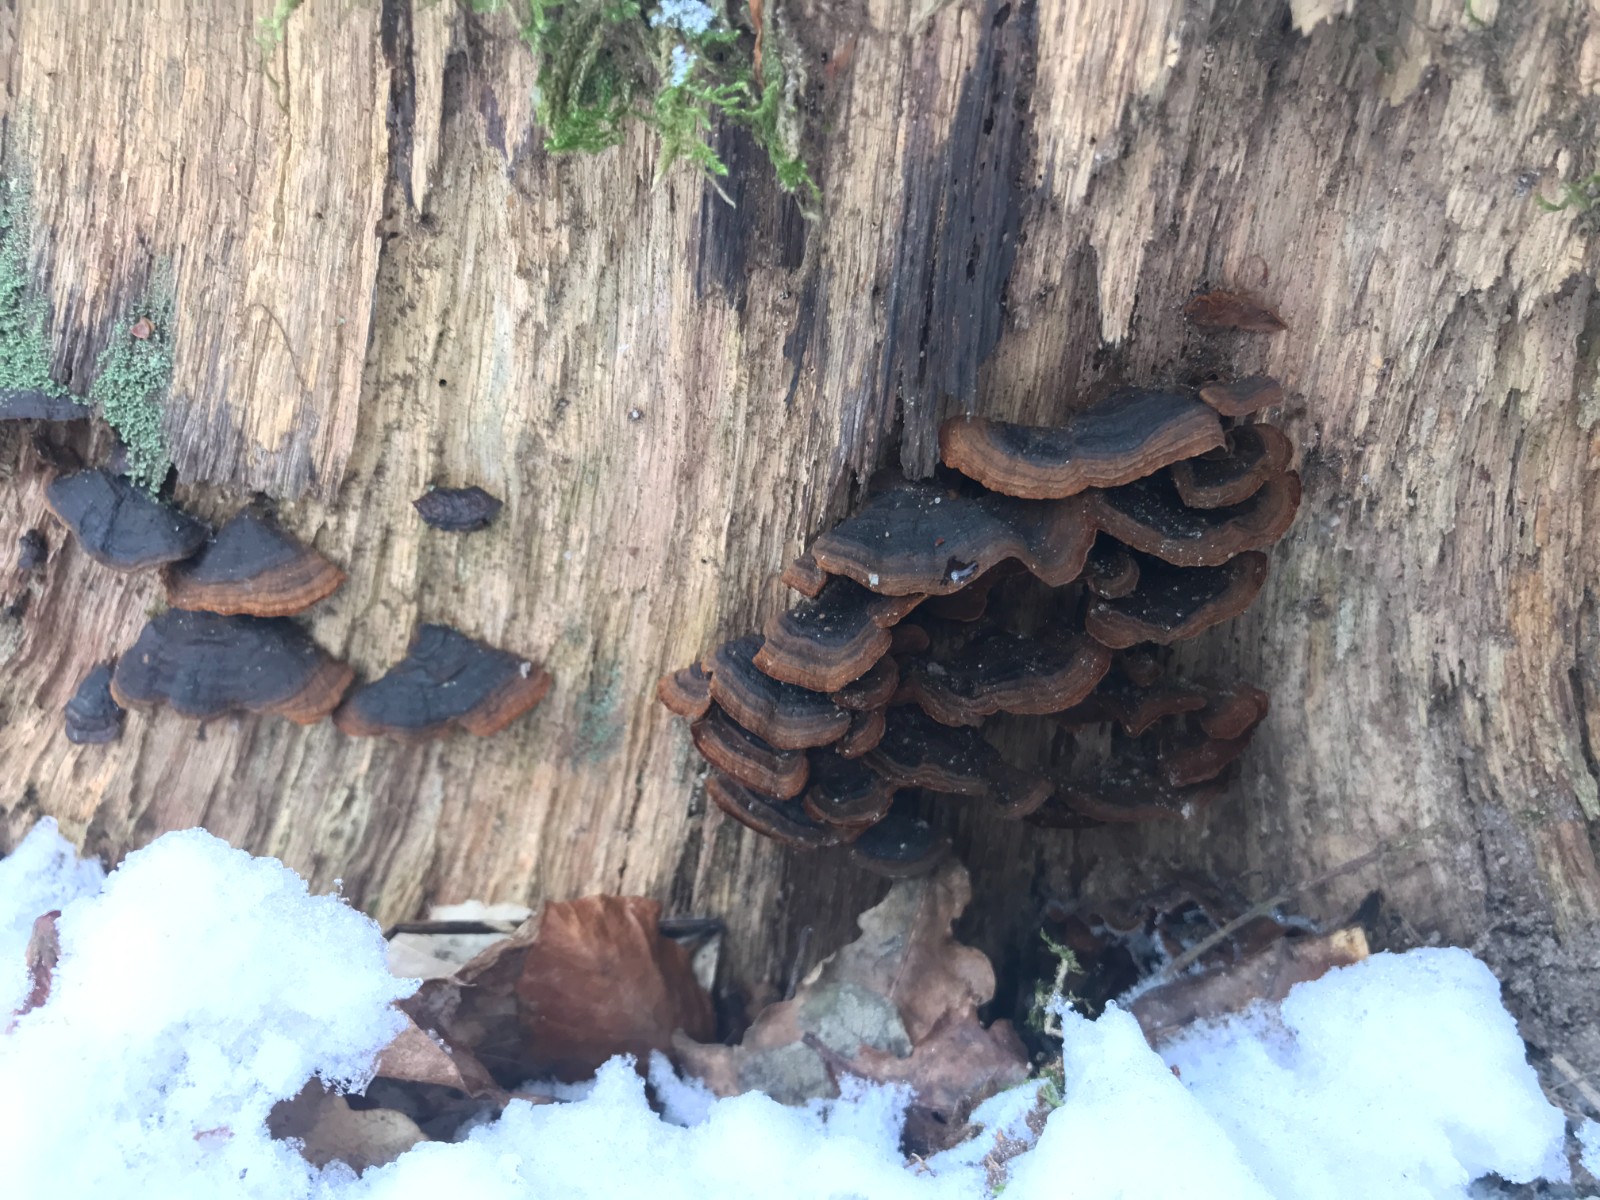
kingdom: Fungi
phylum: Basidiomycota
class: Agaricomycetes
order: Hymenochaetales
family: Hymenochaetaceae
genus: Hymenochaete
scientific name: Hymenochaete rubiginosa
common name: stiv ruslædersvamp
